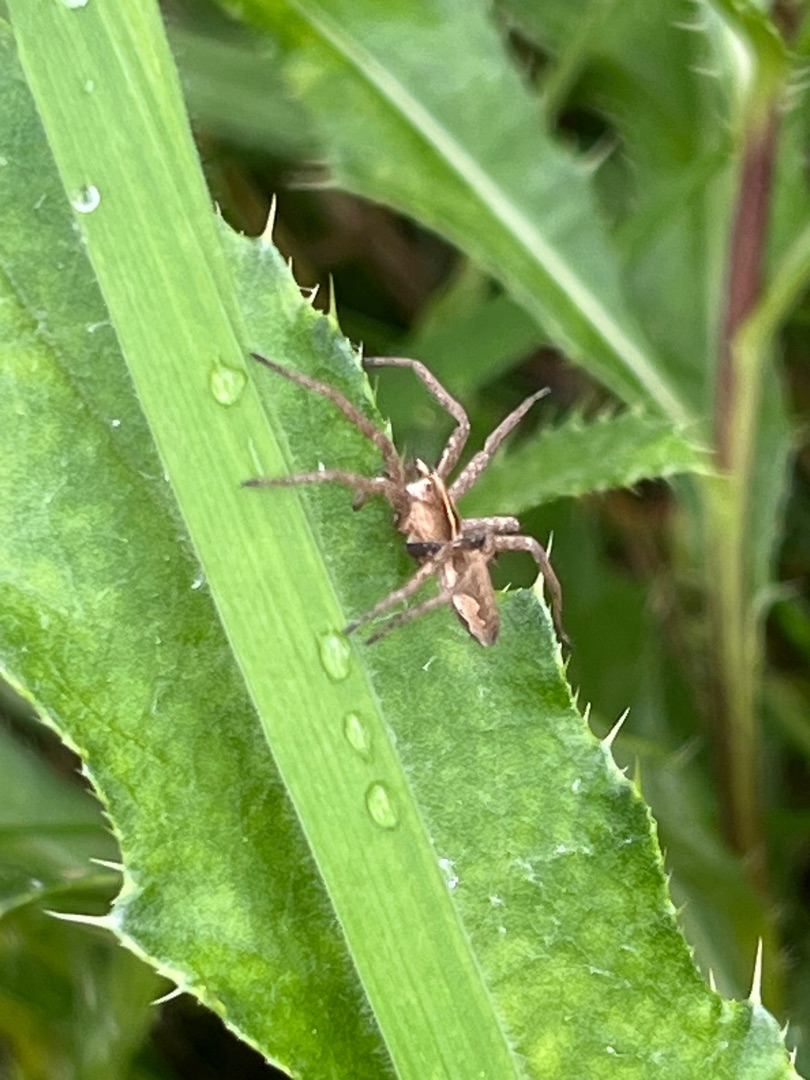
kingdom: Animalia
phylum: Arthropoda
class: Arachnida
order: Araneae
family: Pisauridae
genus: Pisaura
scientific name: Pisaura mirabilis
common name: Almindelig rovedderkop
